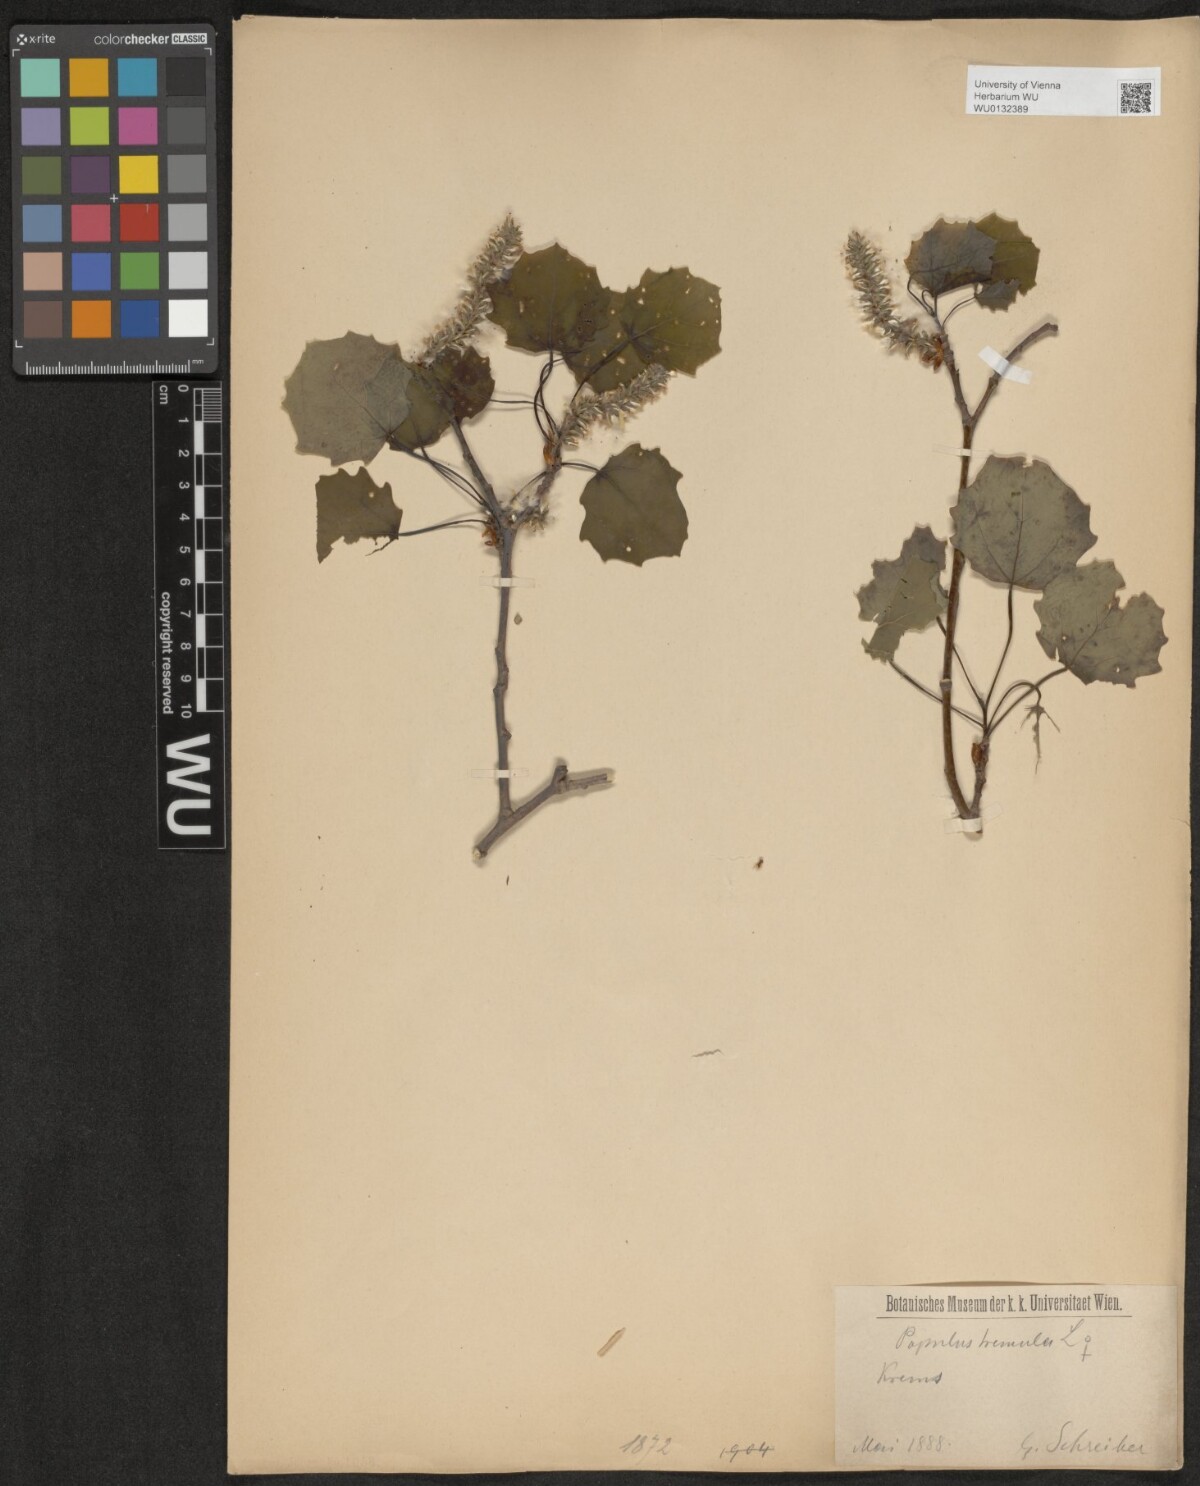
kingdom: Plantae
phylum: Tracheophyta
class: Magnoliopsida
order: Malpighiales
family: Salicaceae
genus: Populus
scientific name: Populus tremula
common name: European aspen
